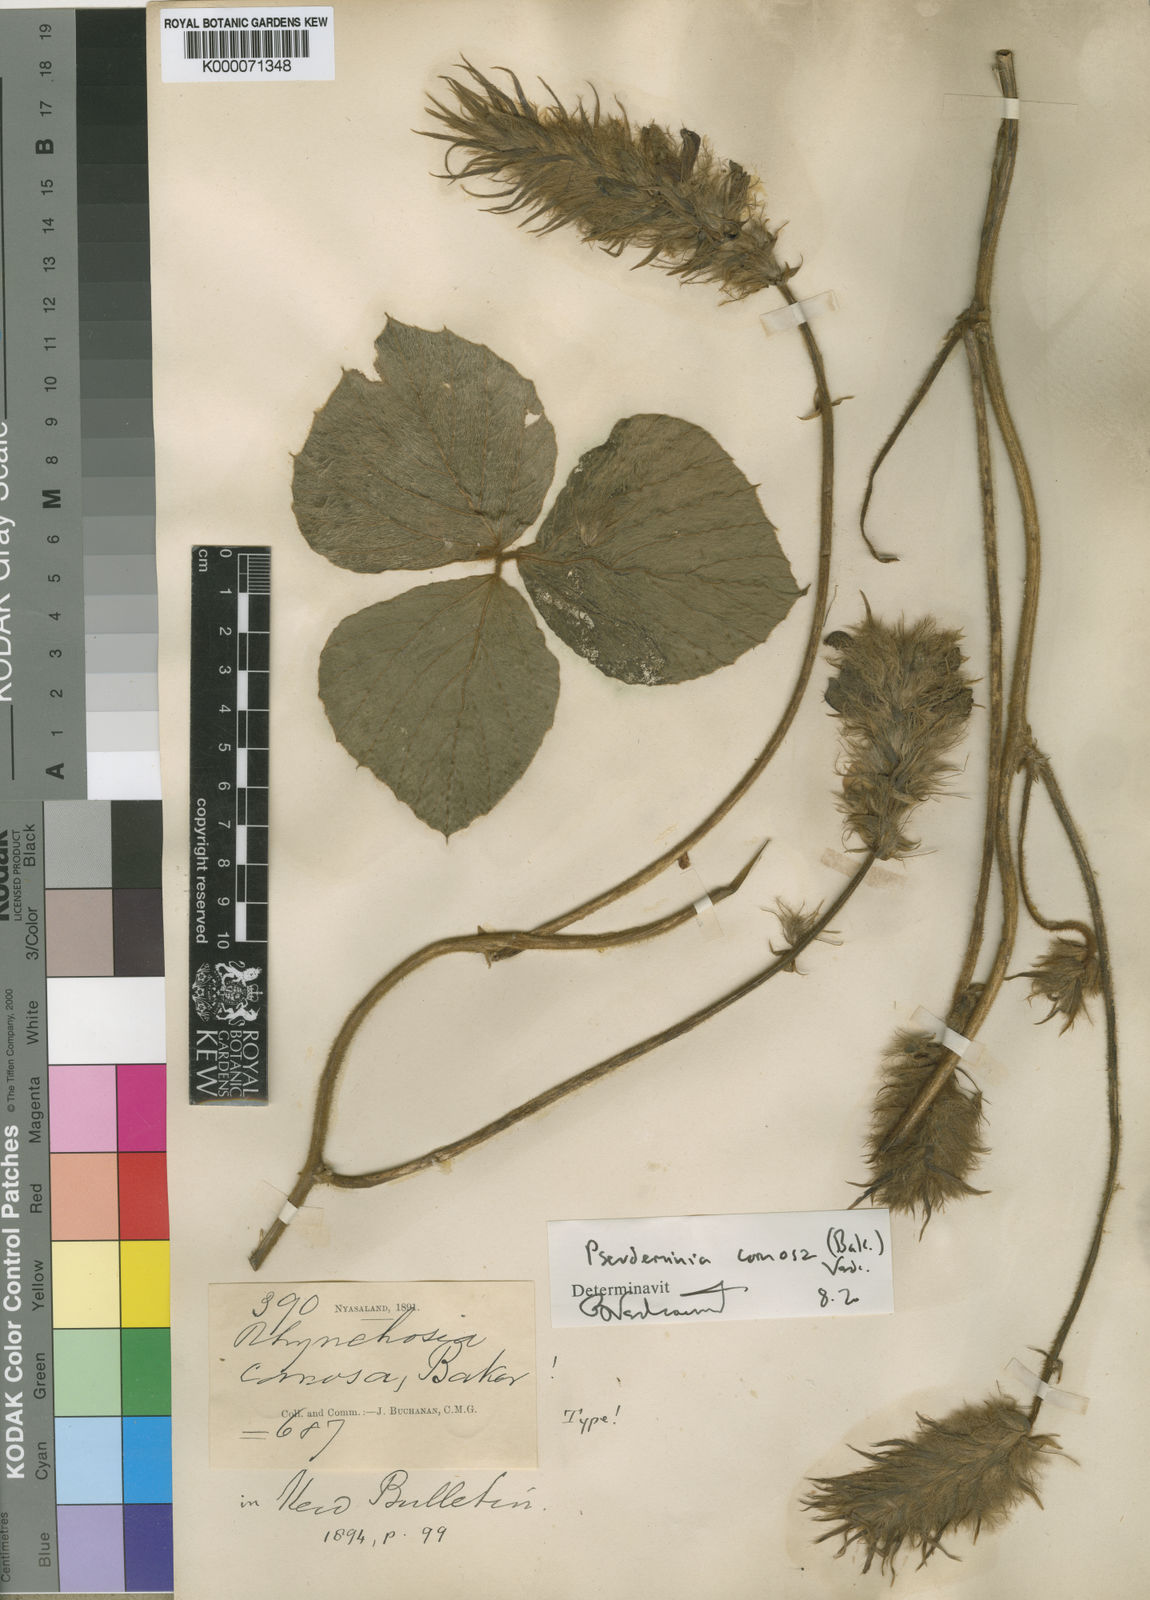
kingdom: Plantae
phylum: Tracheophyta
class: Magnoliopsida
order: Fabales
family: Fabaceae
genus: Pseudeminia
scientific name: Pseudeminia comosa
